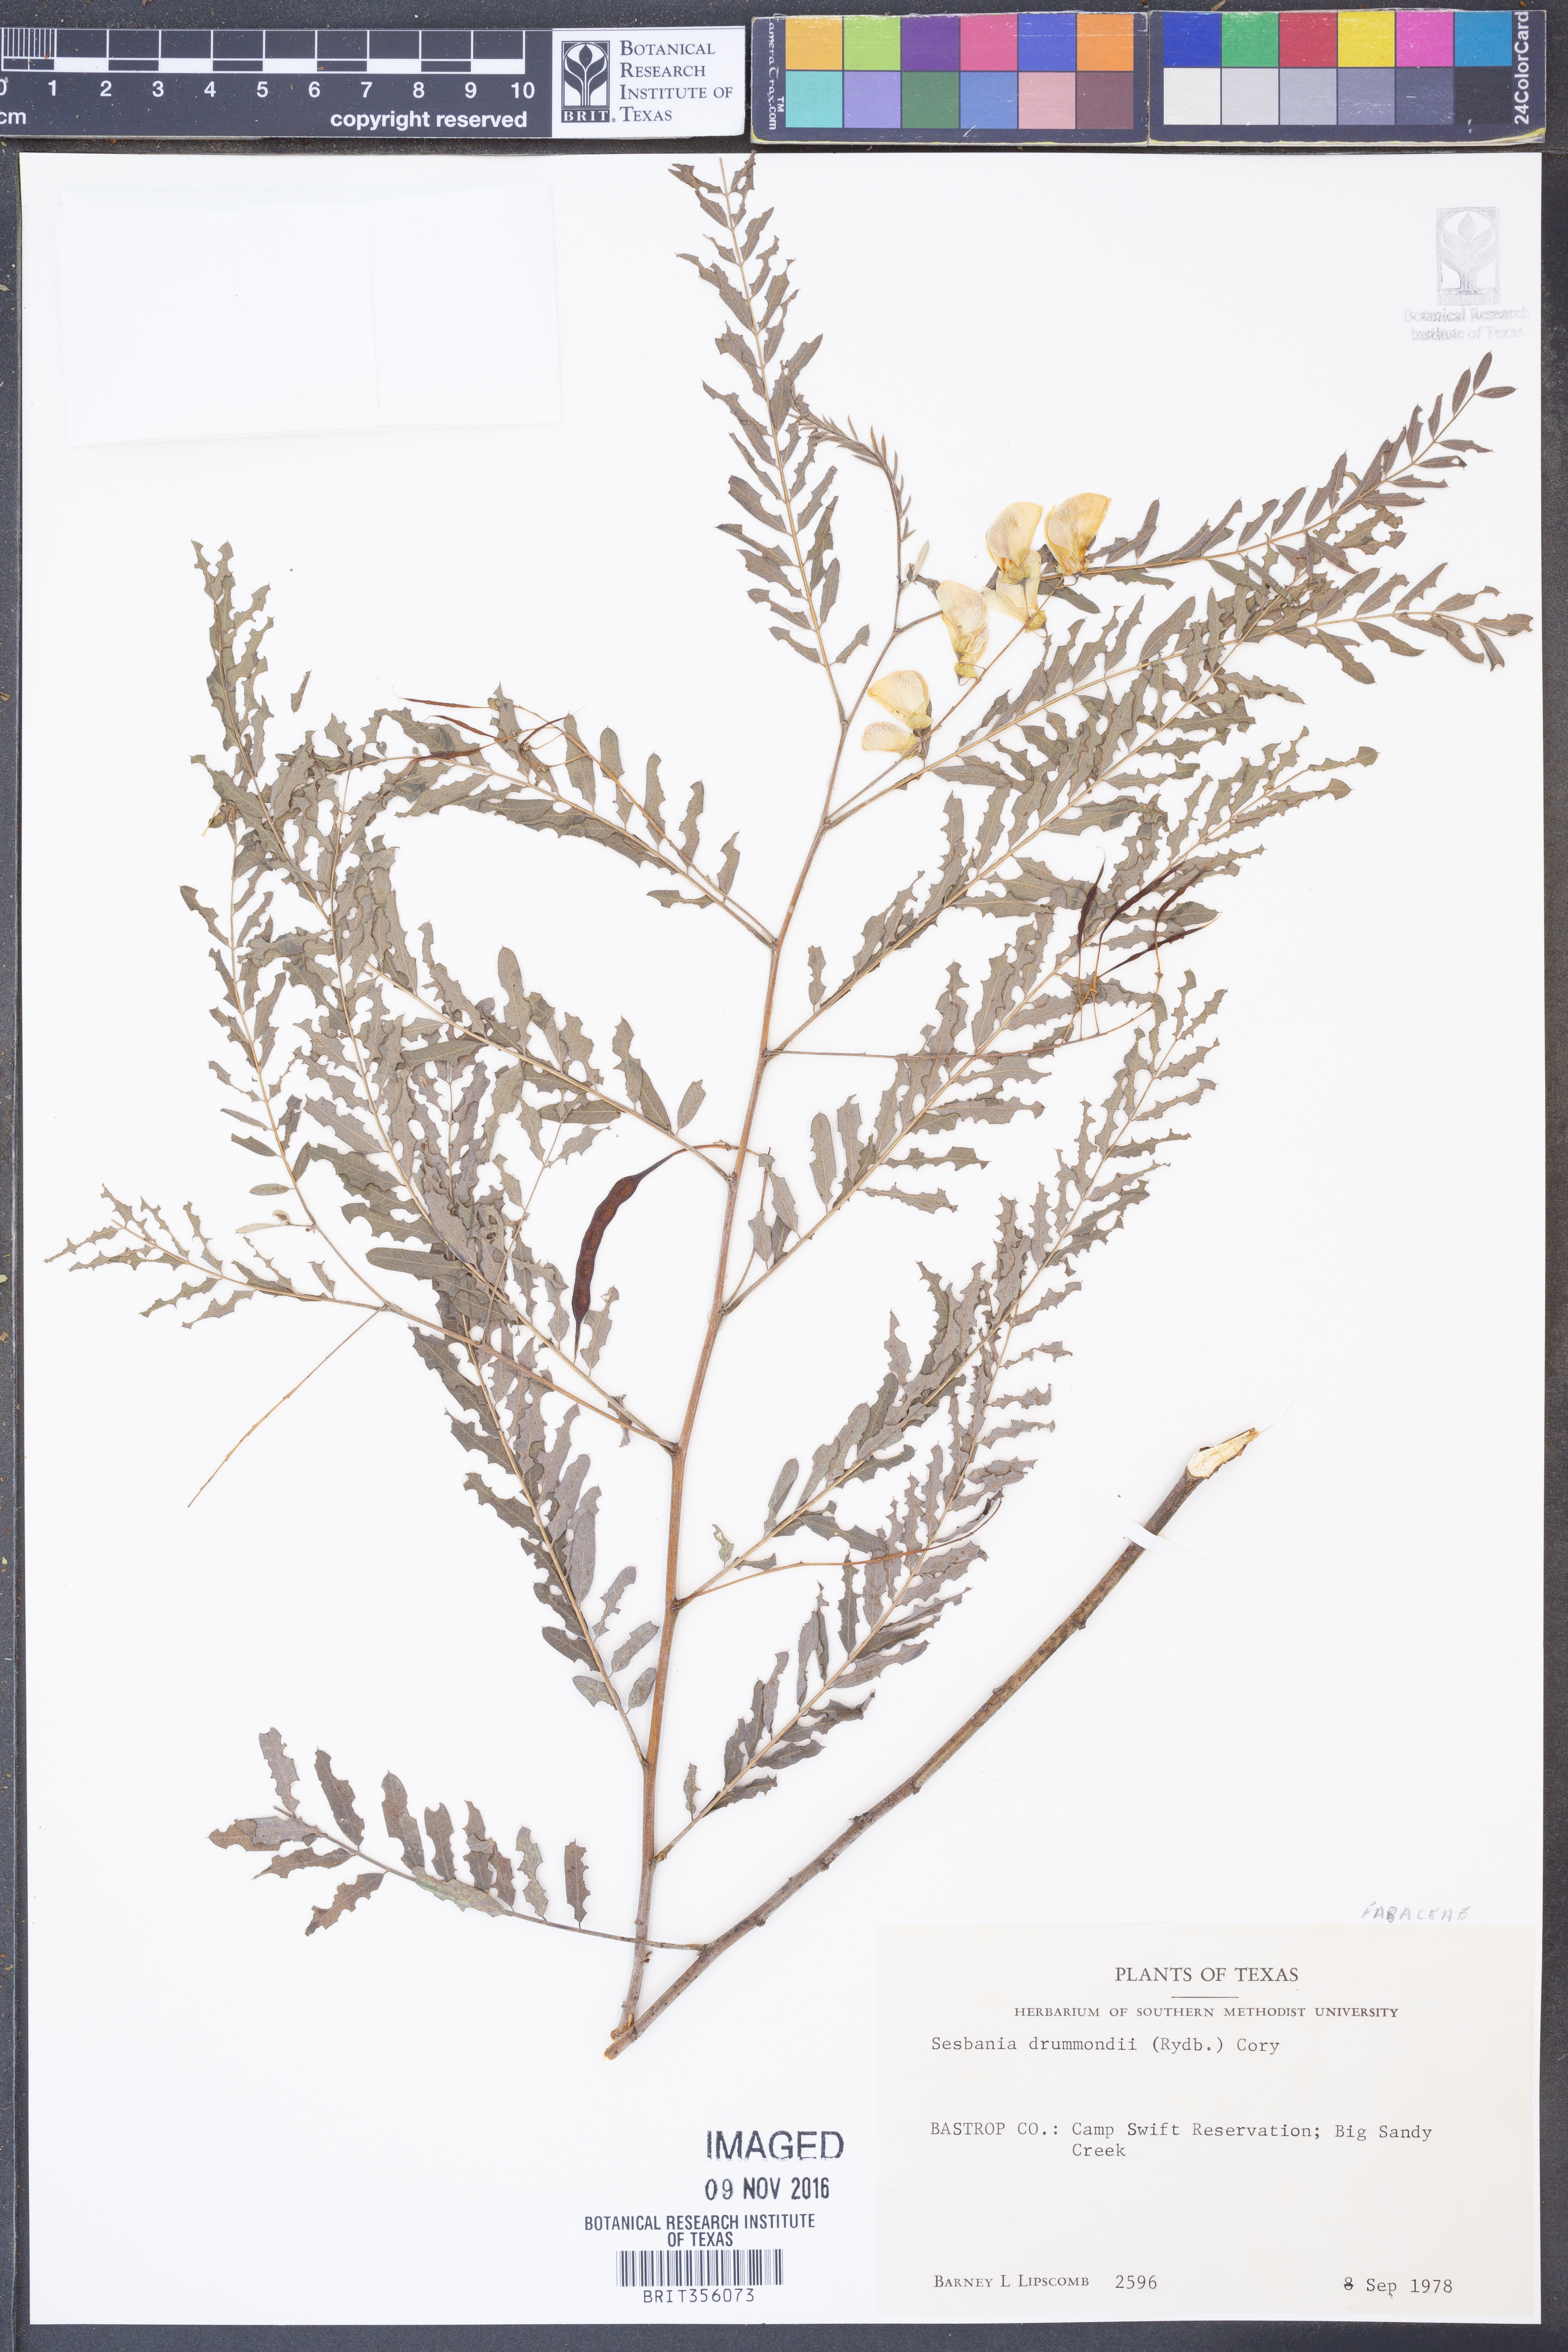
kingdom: Plantae
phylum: Tracheophyta
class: Magnoliopsida
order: Fabales
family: Fabaceae
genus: Sesbania
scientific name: Sesbania drummondii
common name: Poison-bean
